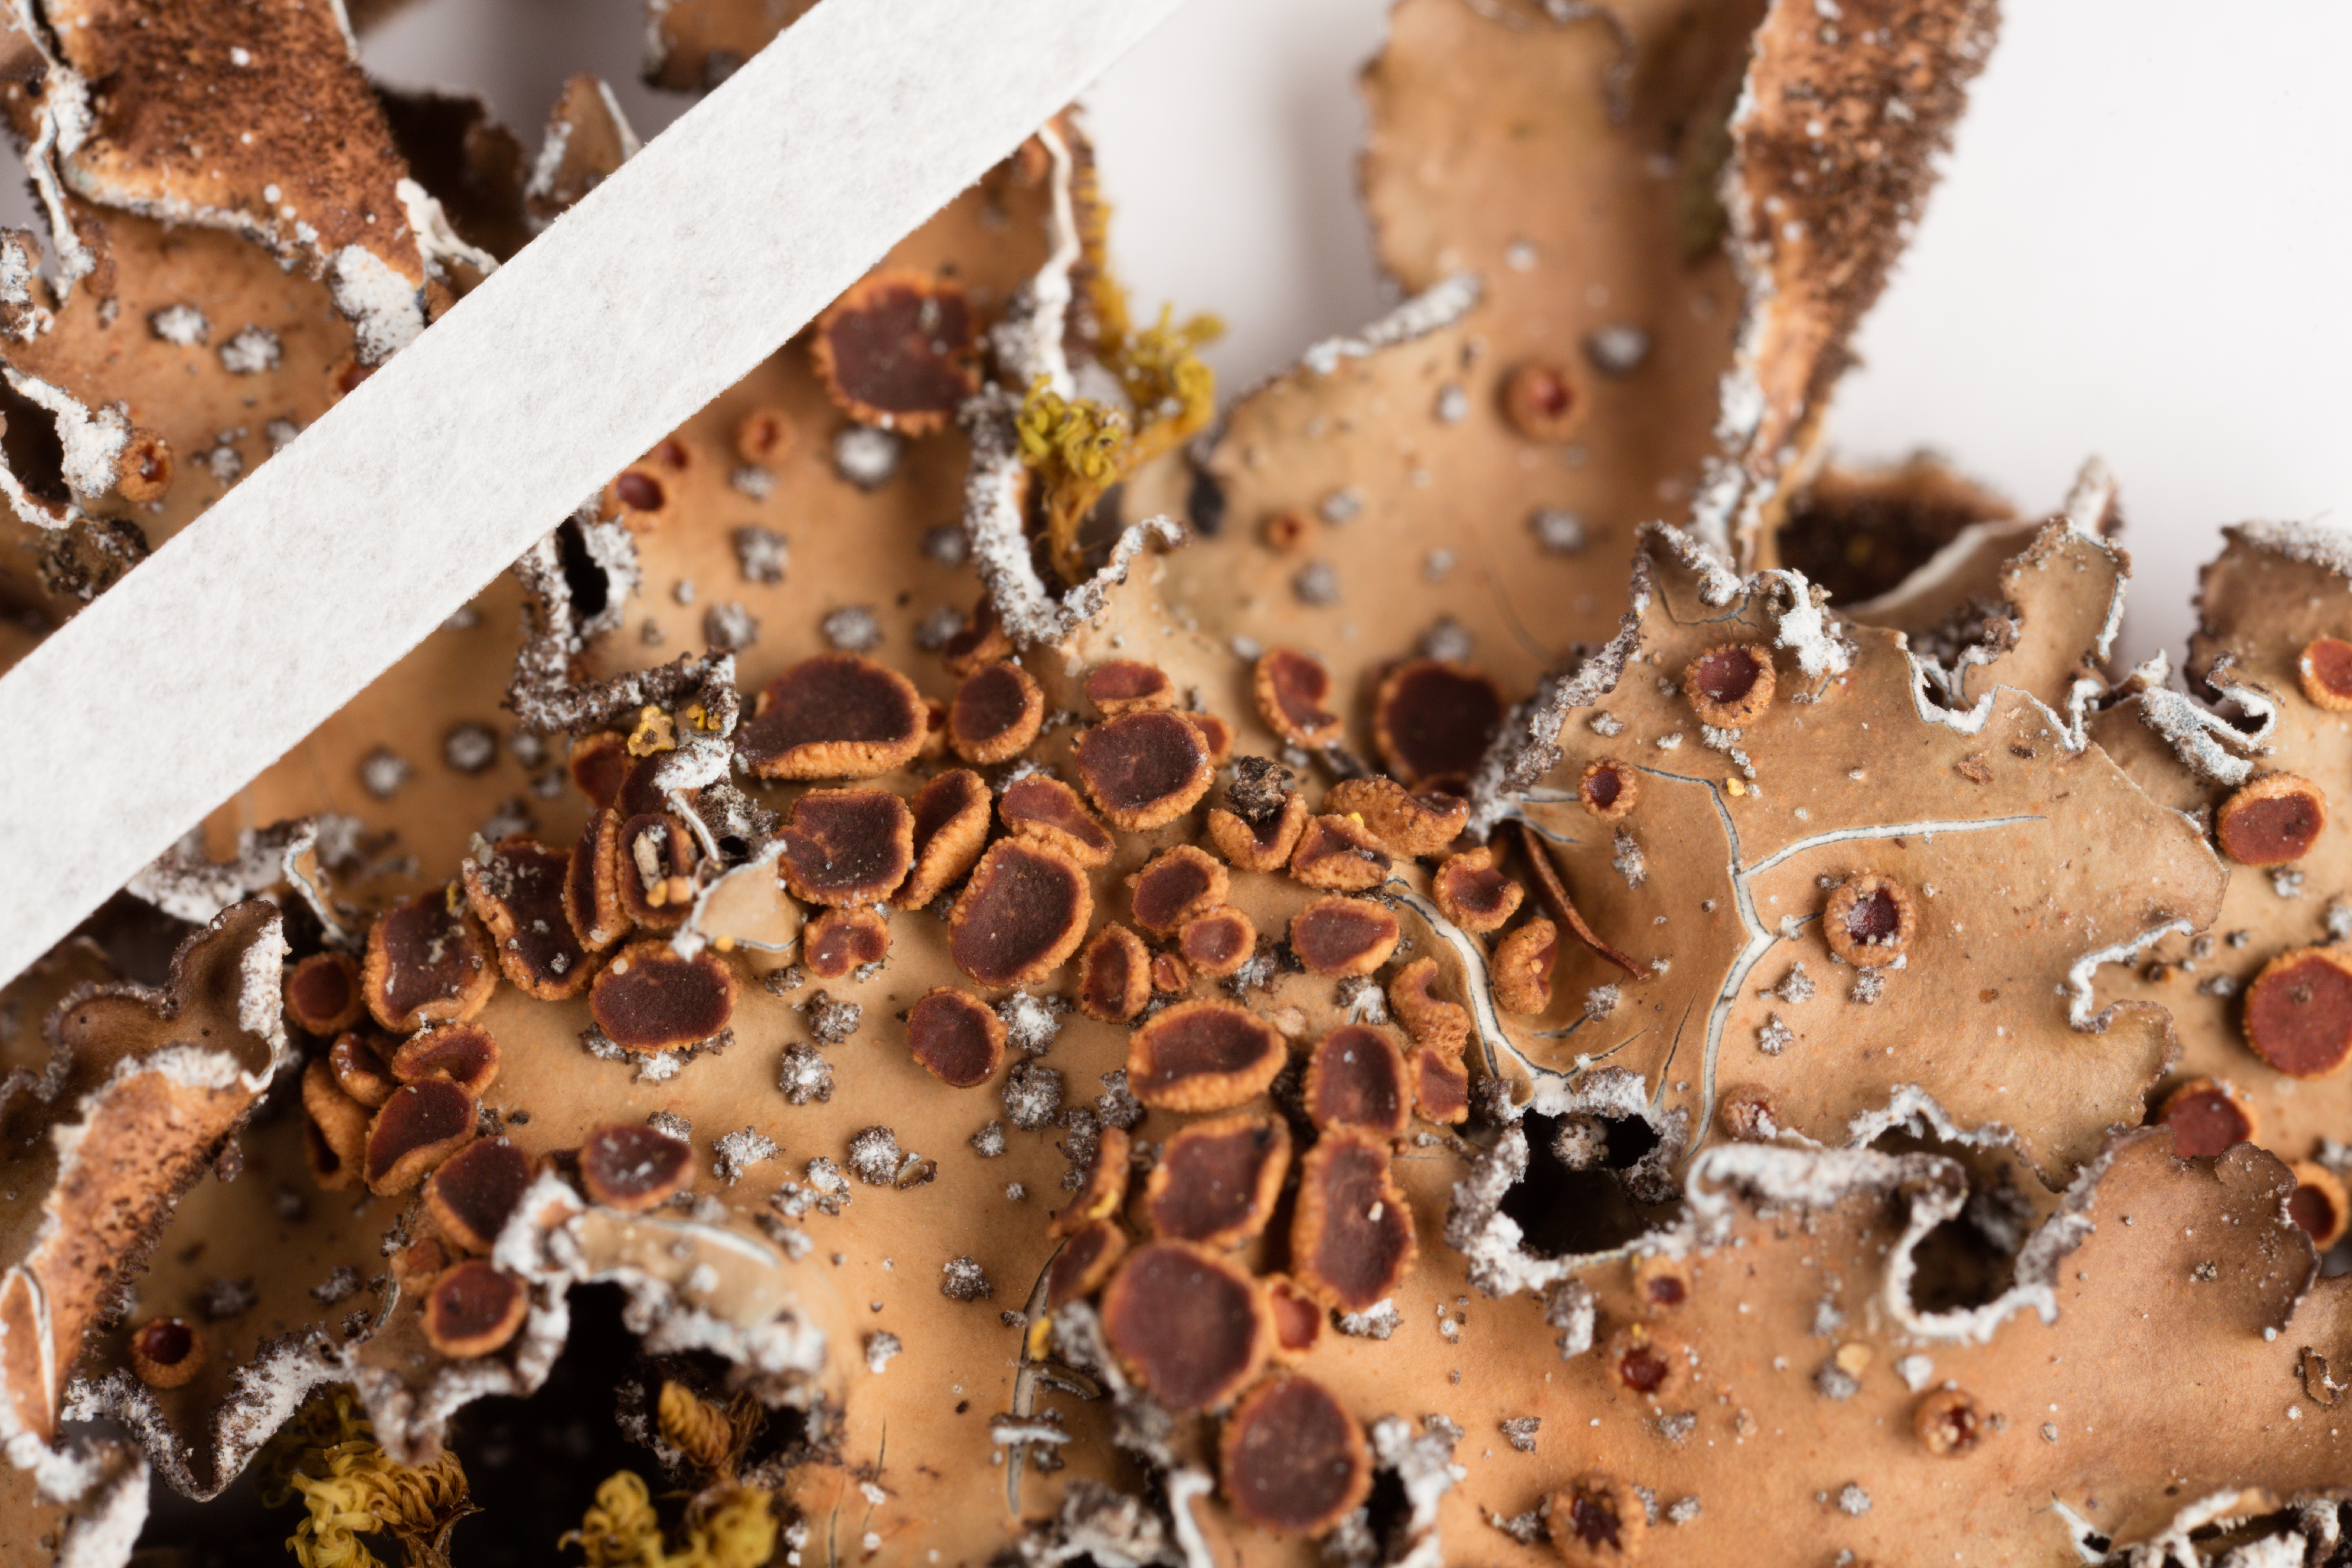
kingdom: Fungi
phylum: Ascomycota
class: Lecanoromycetes
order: Peltigerales
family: Lobariaceae
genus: Pseudocyphellaria
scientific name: Pseudocyphellaria argyracea
